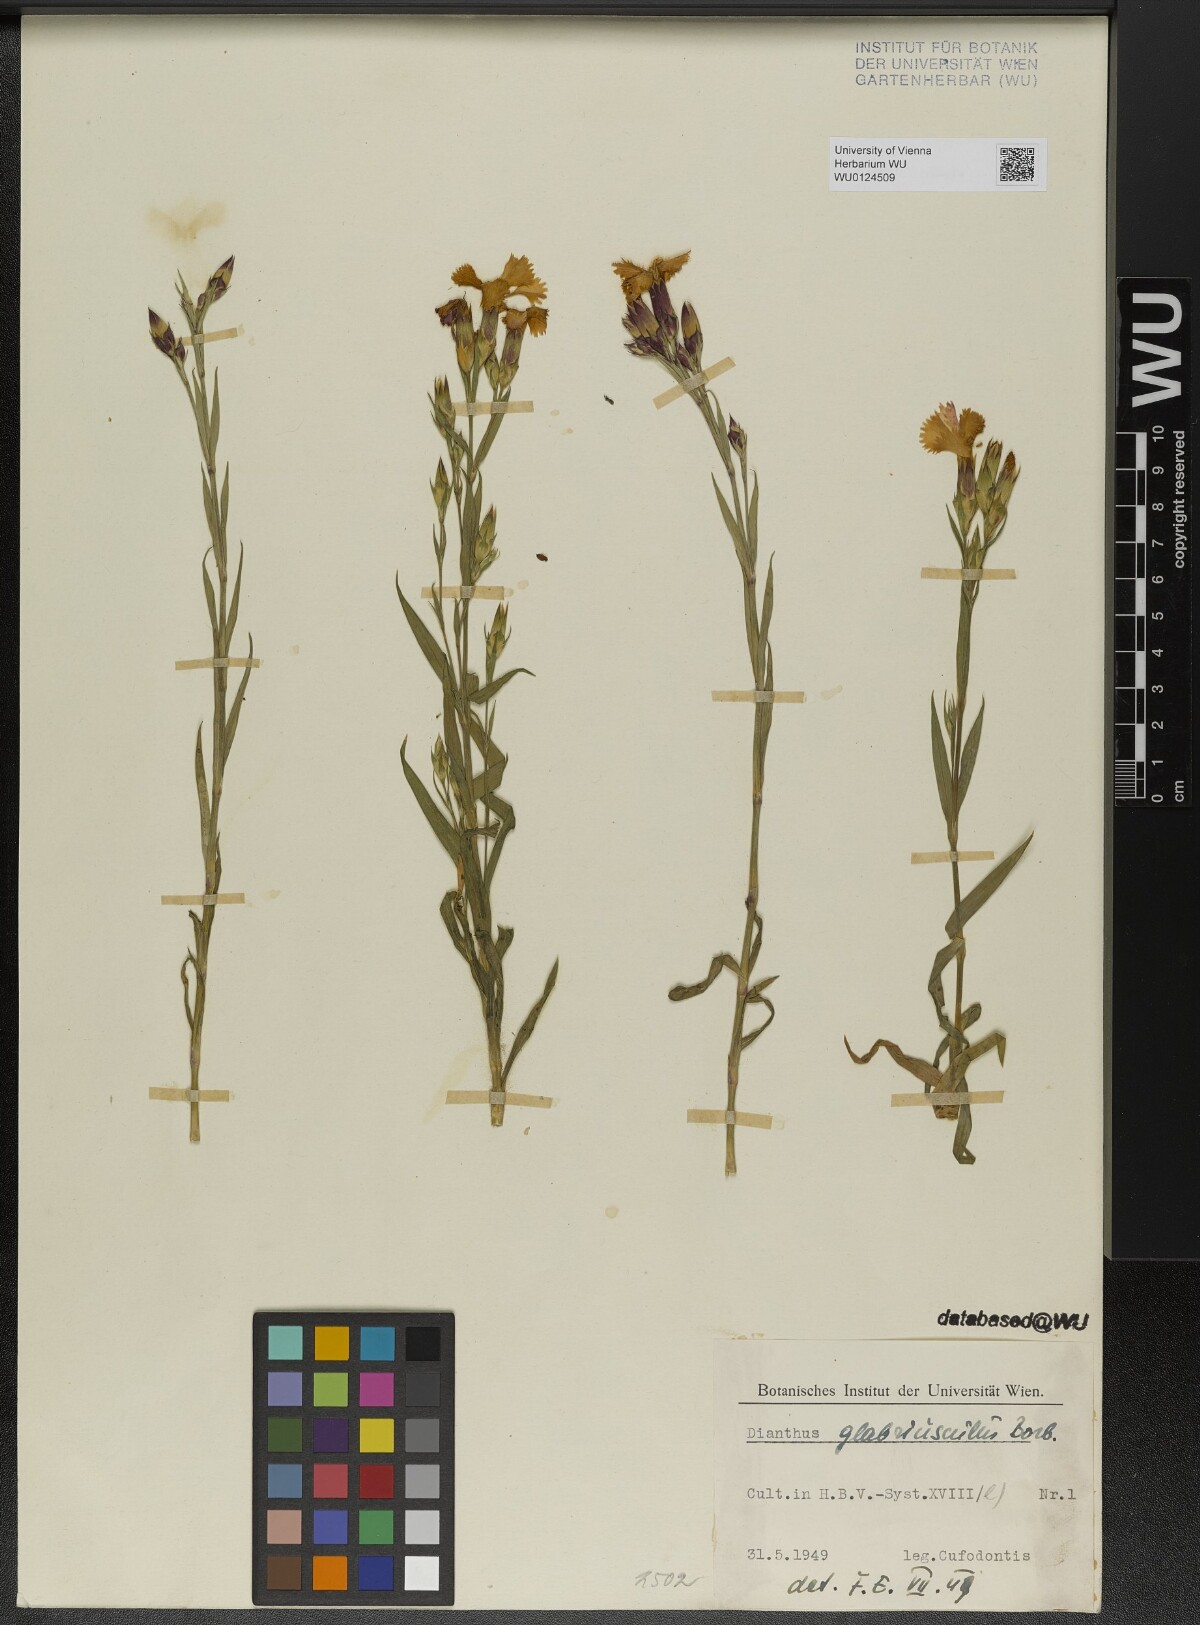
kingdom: Plantae
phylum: Tracheophyta
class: Magnoliopsida
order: Caryophyllales
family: Caryophyllaceae
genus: Dianthus
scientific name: Dianthus collinus
